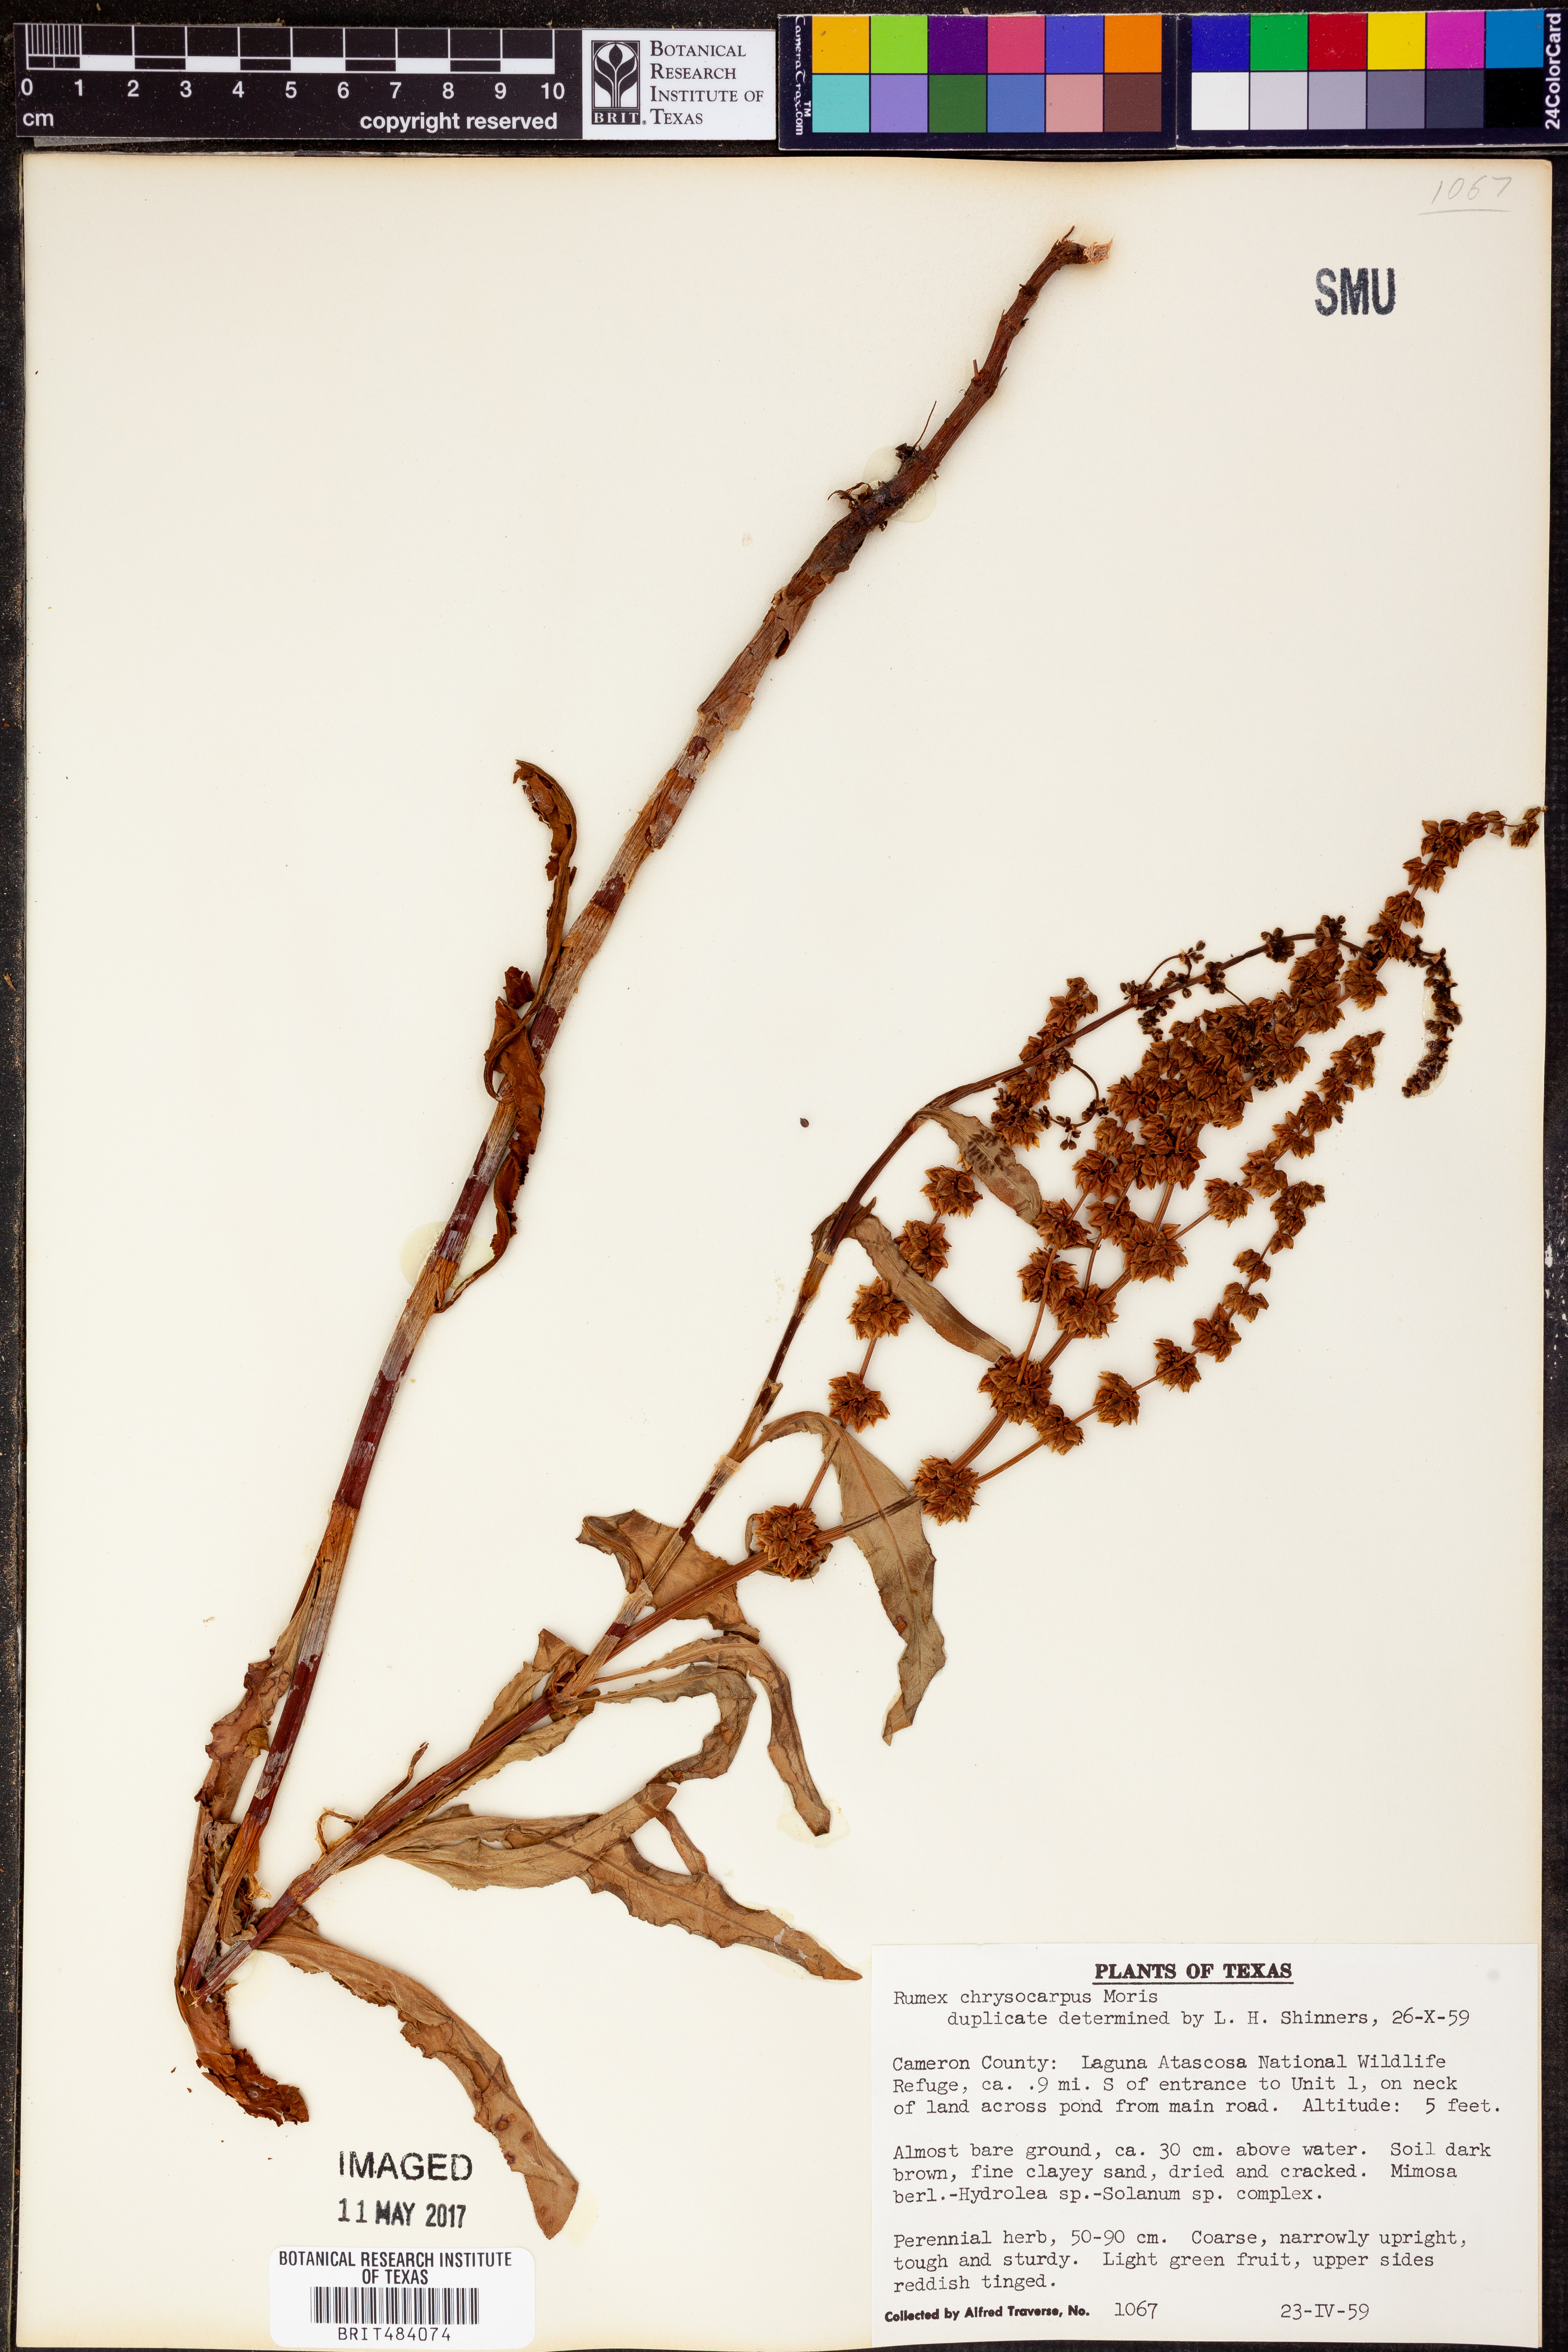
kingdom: Plantae
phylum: Tracheophyta
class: Magnoliopsida
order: Caryophyllales
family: Polygonaceae
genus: Rumex
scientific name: Rumex chrysocarpus
